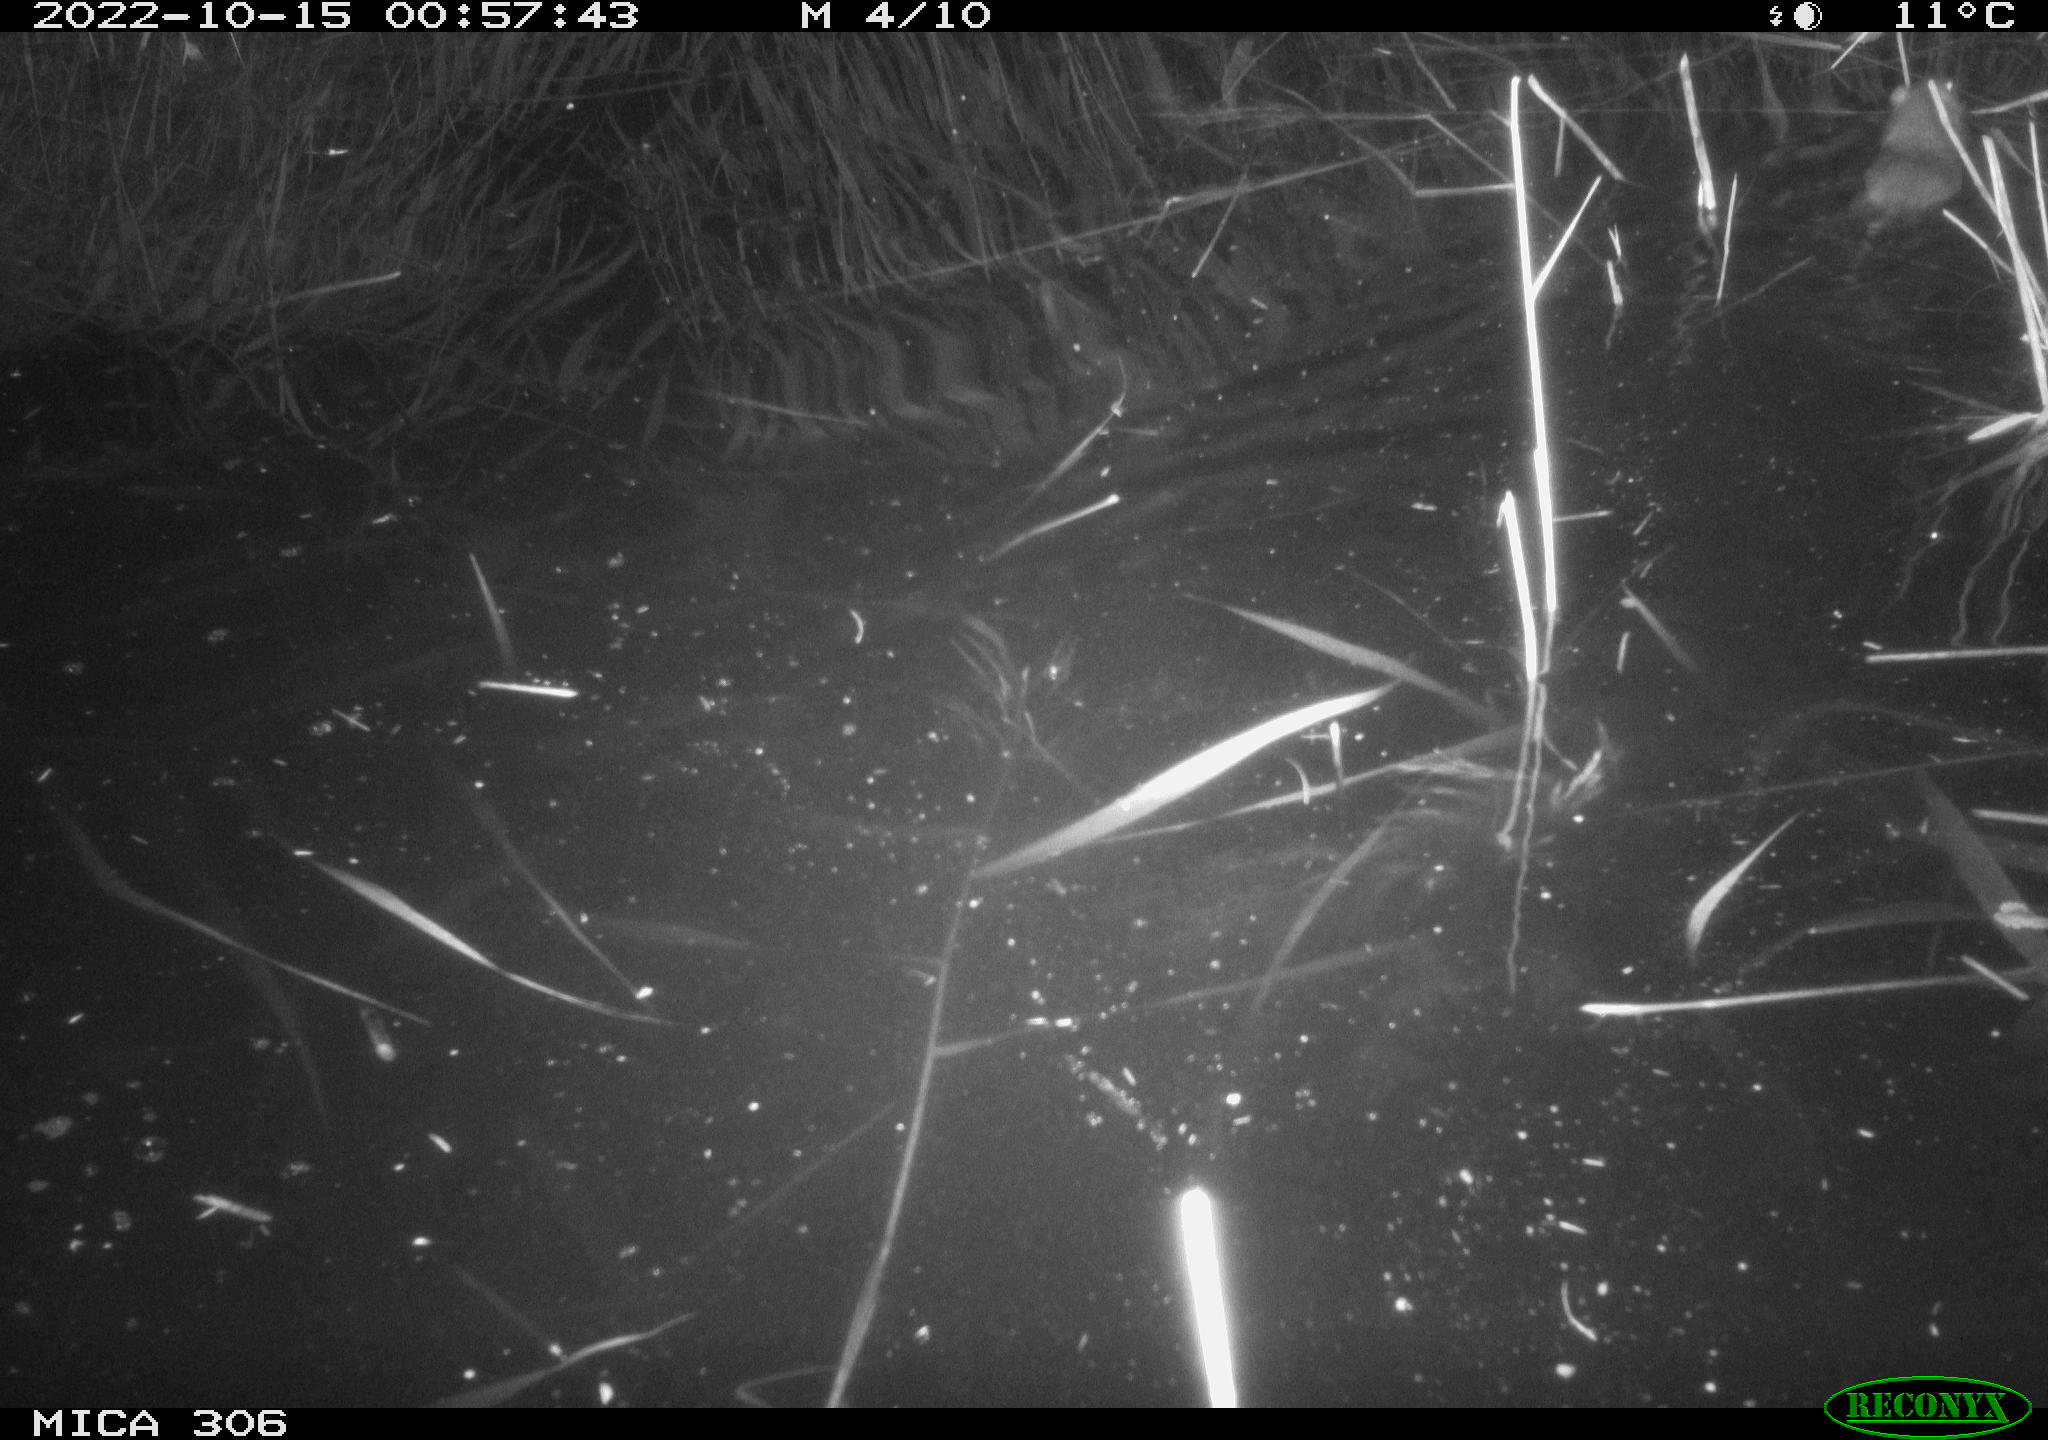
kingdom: Animalia
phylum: Chordata
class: Mammalia
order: Rodentia
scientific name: Rodentia
